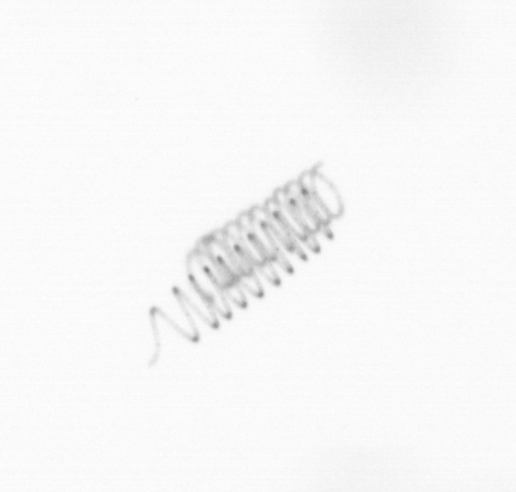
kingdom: Chromista
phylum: Ochrophyta
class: Bacillariophyceae
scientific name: Bacillariophyceae
